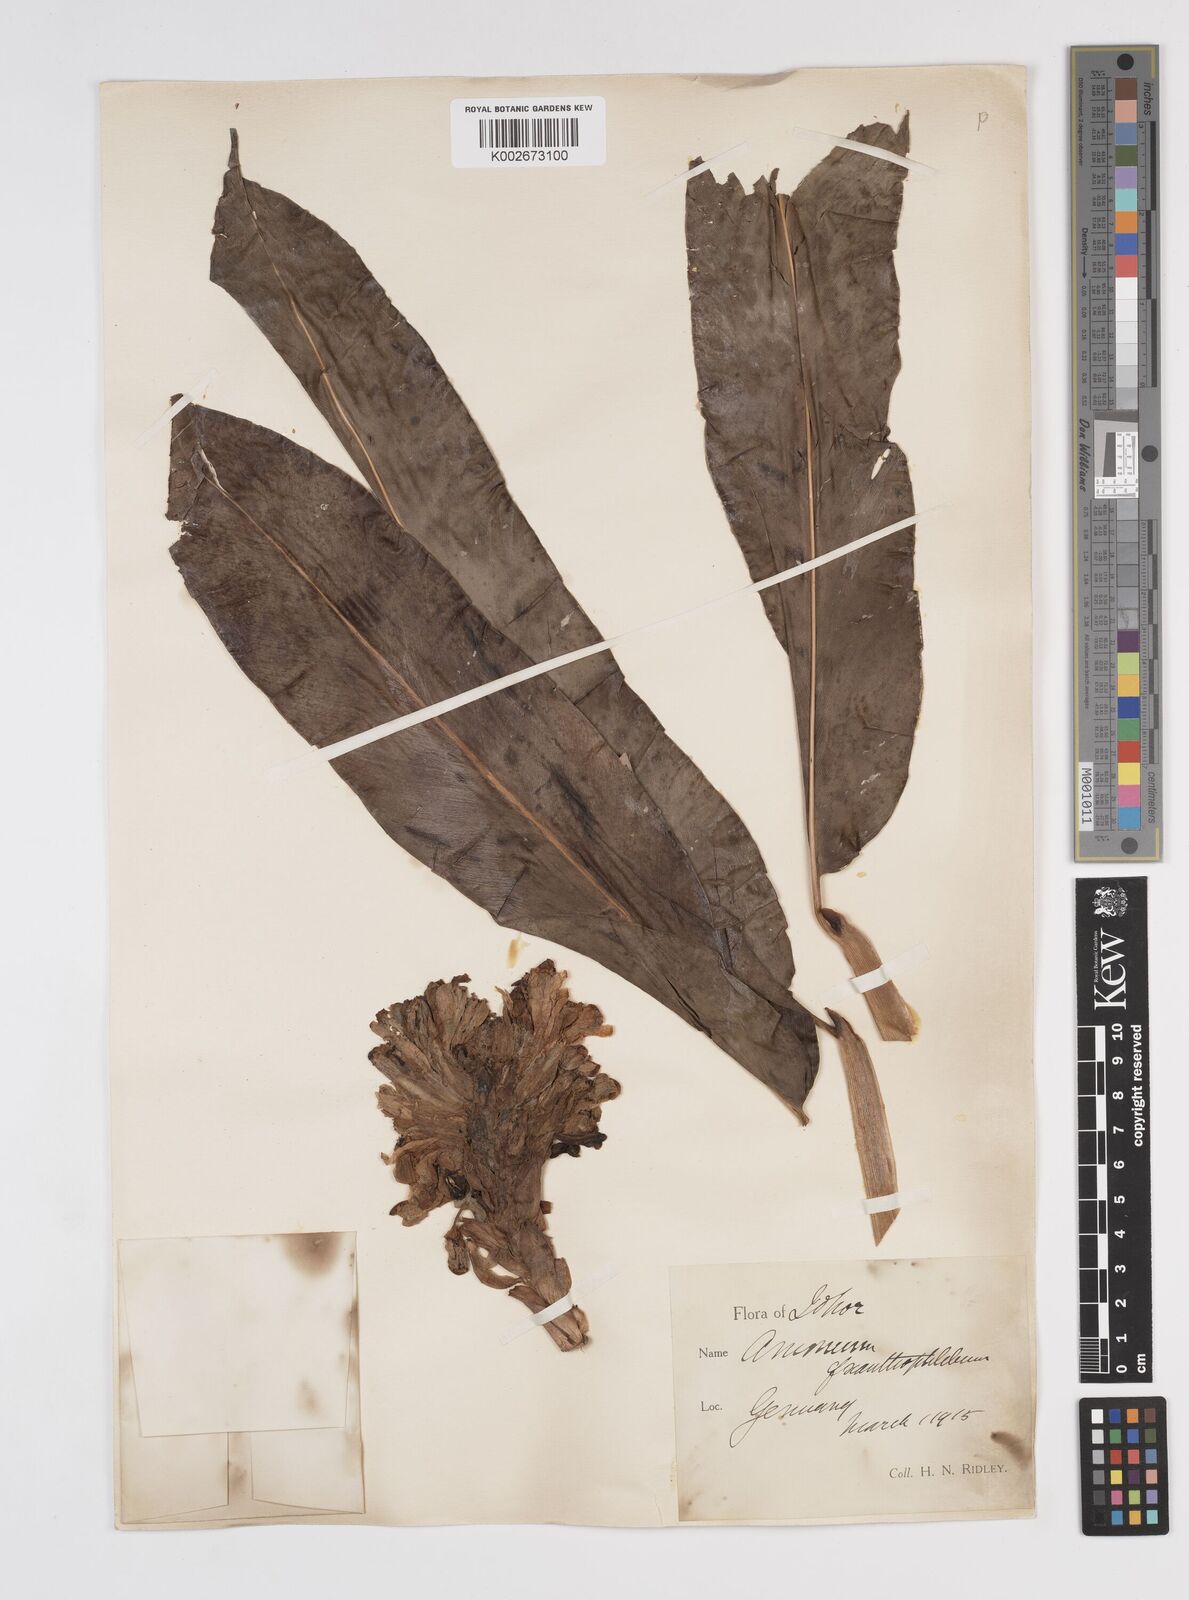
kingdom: Plantae
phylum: Tracheophyta
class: Liliopsida
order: Zingiberales
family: Zingiberaceae
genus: Conamomum
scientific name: Conamomum xanthophlebium
